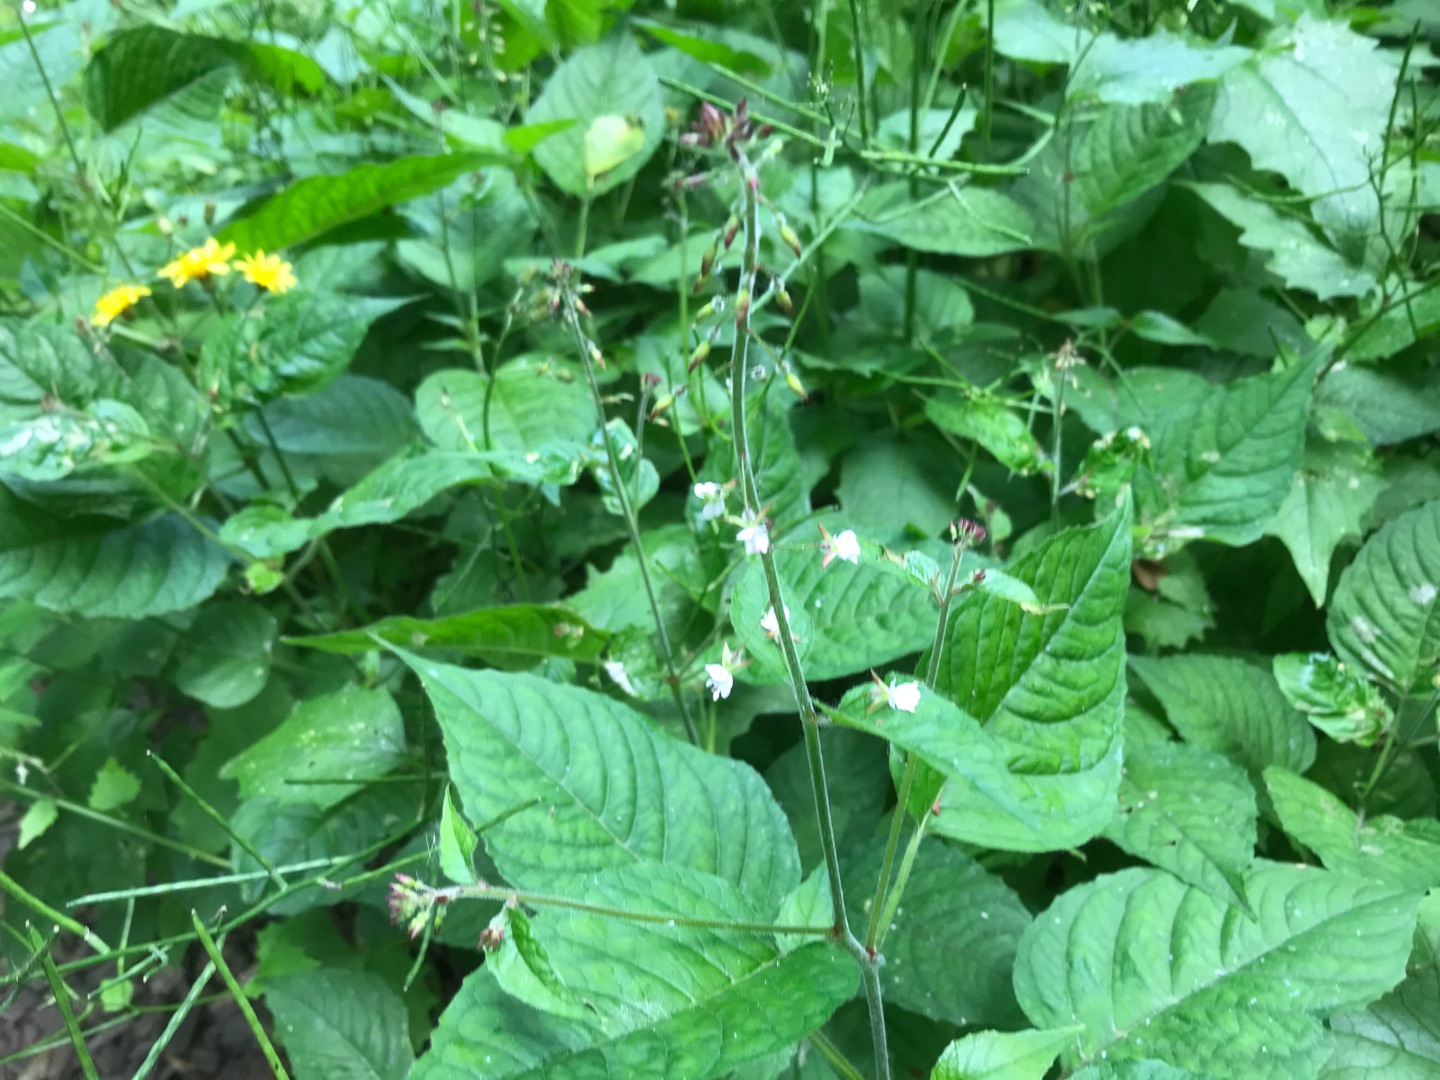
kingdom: Plantae
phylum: Tracheophyta
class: Magnoliopsida
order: Myrtales
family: Onagraceae
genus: Circaea
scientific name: Circaea lutetiana
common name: Dunet steffensurt
